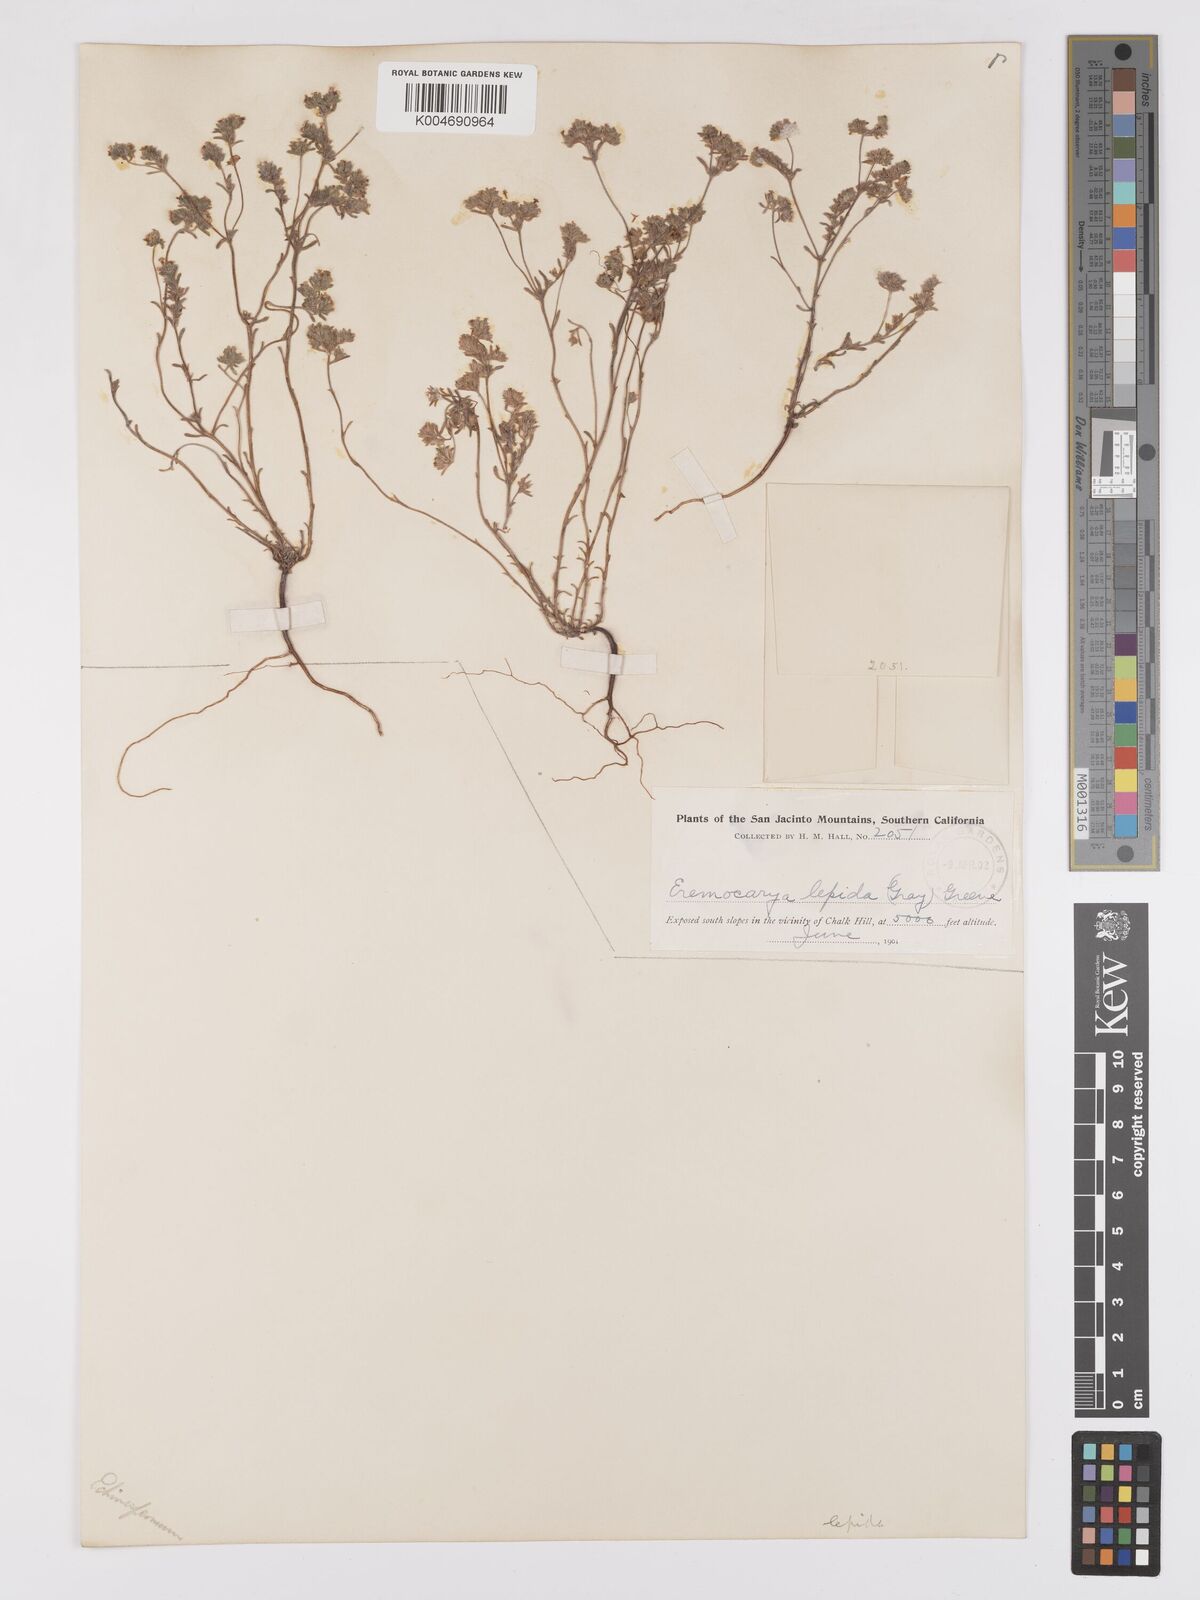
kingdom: Plantae
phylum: Tracheophyta
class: Magnoliopsida
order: Boraginales
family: Boraginaceae
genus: Eremocarya
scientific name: Eremocarya lepida
